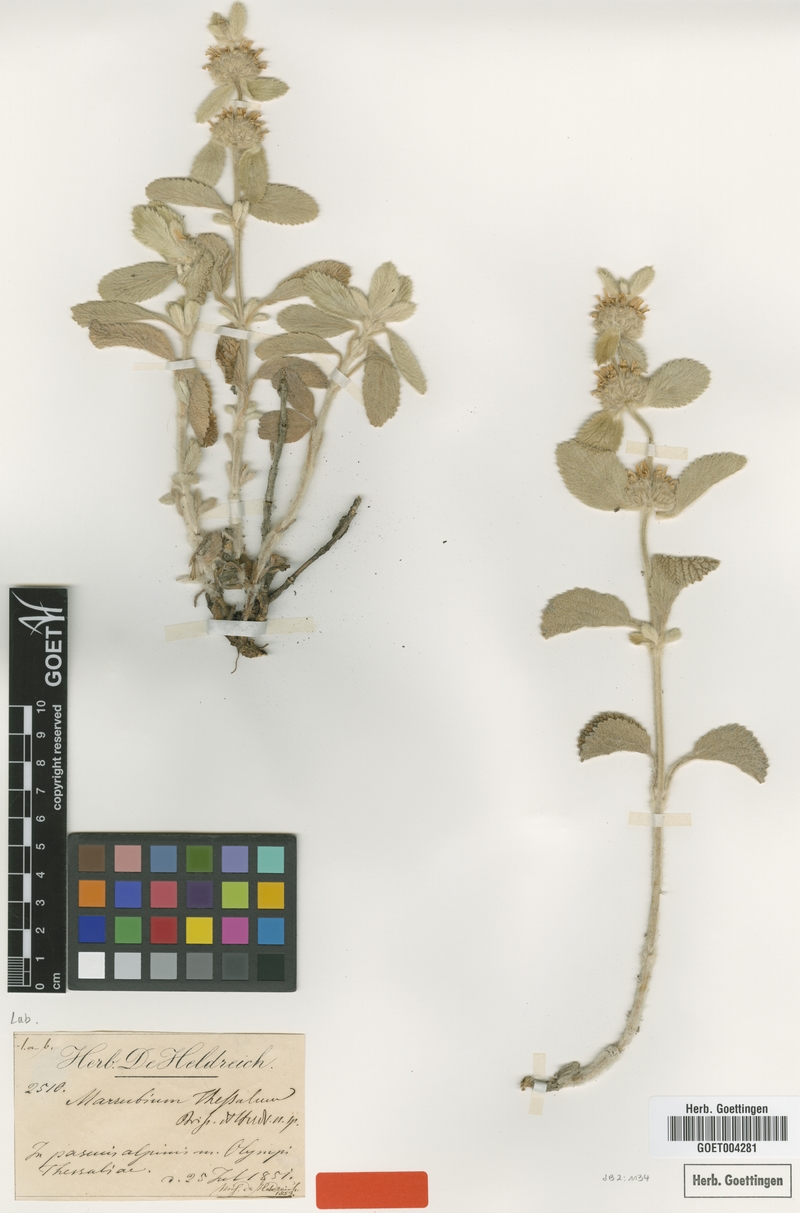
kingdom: Plantae
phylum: Tracheophyta
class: Magnoliopsida
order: Lamiales
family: Lamiaceae
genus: Marrubium
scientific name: Marrubium thessalum
